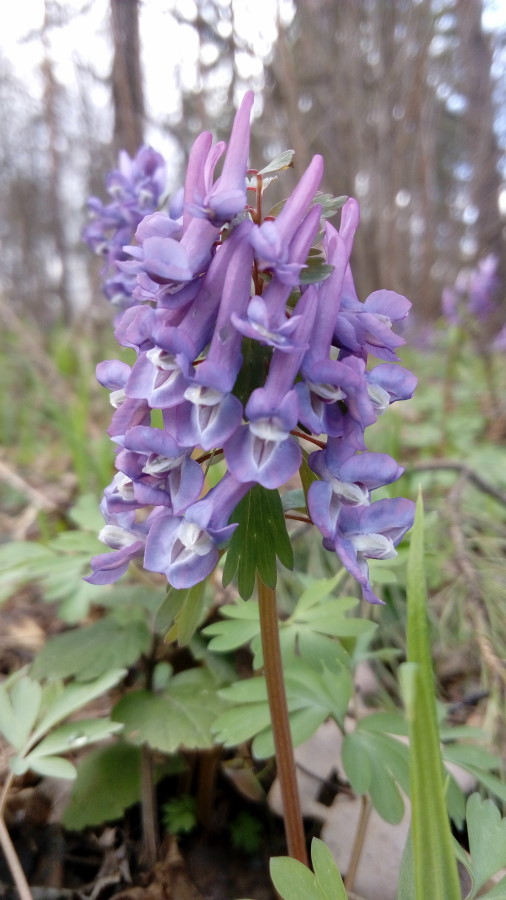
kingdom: Plantae
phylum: Tracheophyta
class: Magnoliopsida
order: Ranunculales
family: Papaveraceae
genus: Corydalis
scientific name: Corydalis solida
